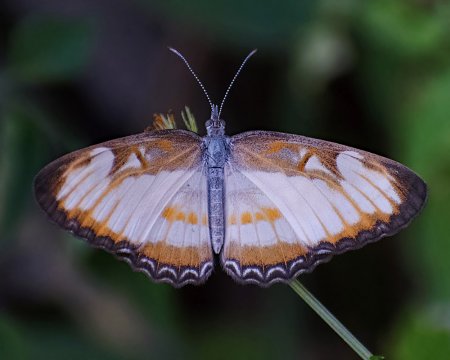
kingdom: Animalia
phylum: Arthropoda
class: Insecta
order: Lepidoptera
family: Nymphalidae
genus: Mestra
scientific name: Mestra hersilia
